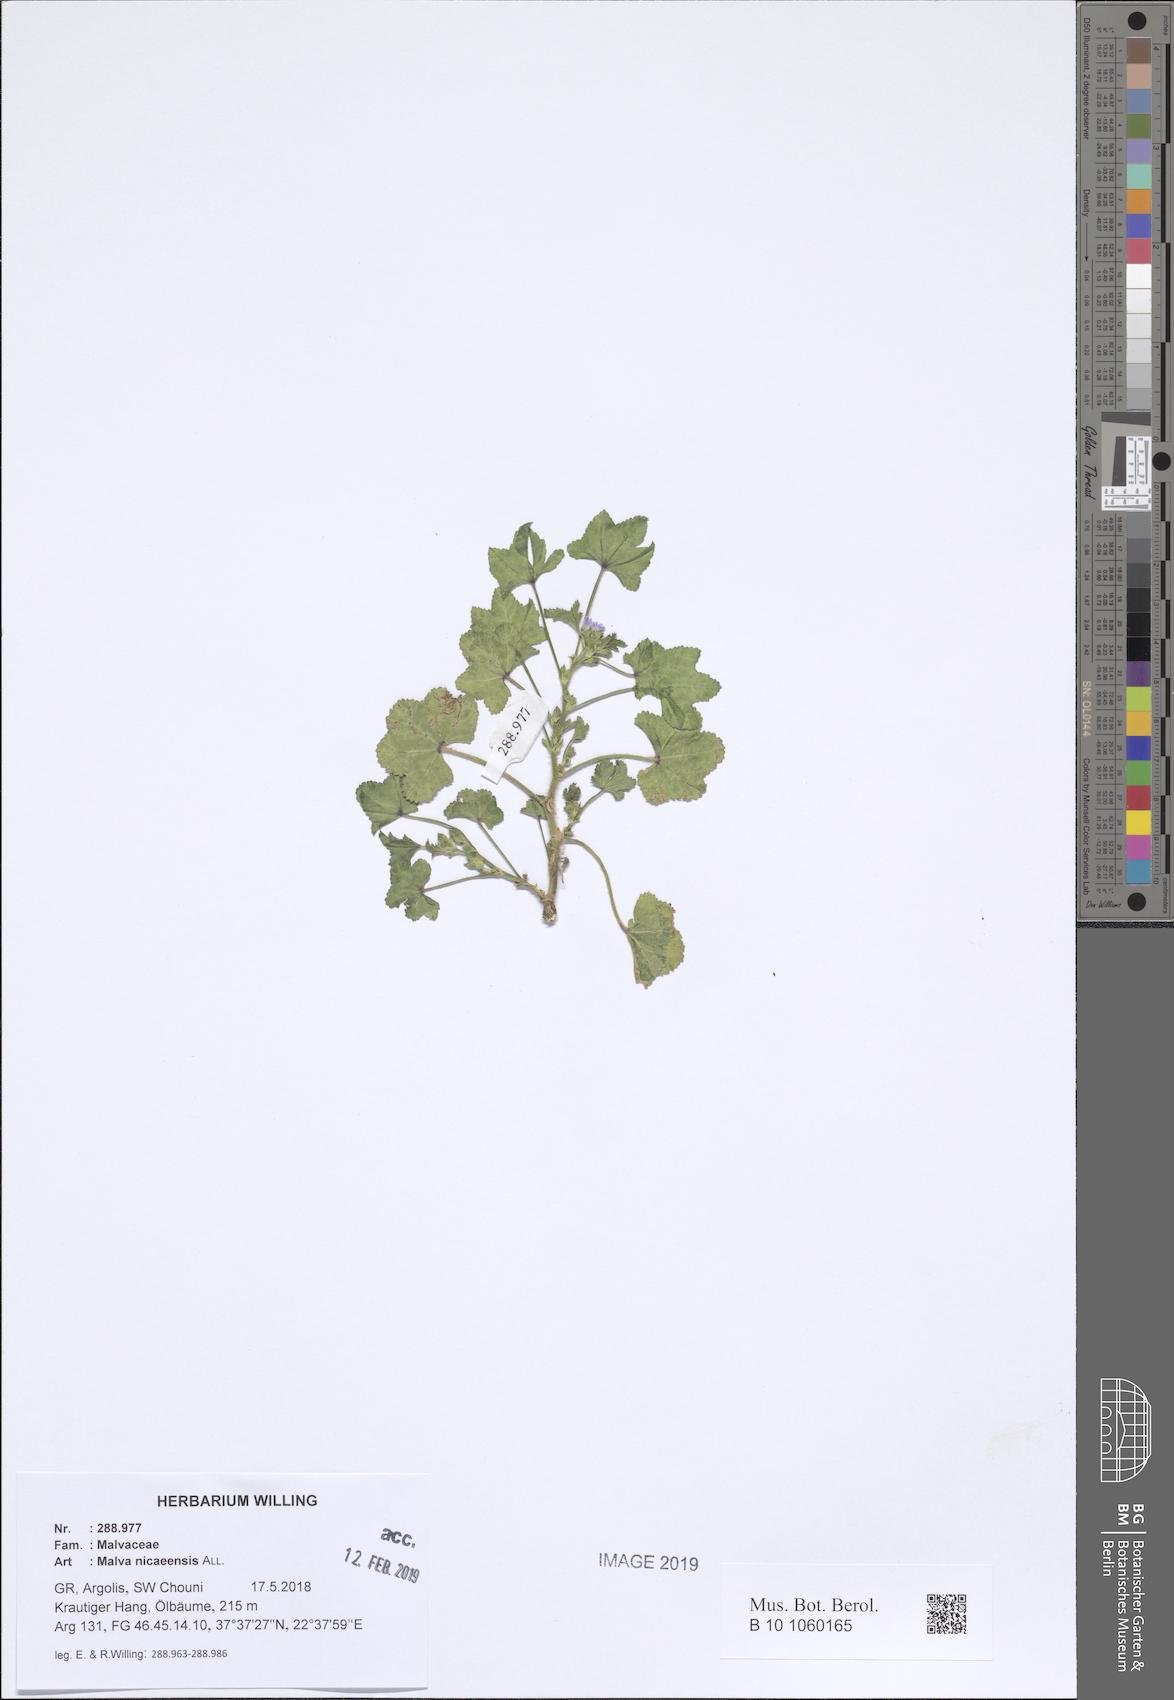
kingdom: Plantae
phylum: Tracheophyta
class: Magnoliopsida
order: Malvales
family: Malvaceae
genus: Malva
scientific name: Malva nicaeensis
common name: French mallow
